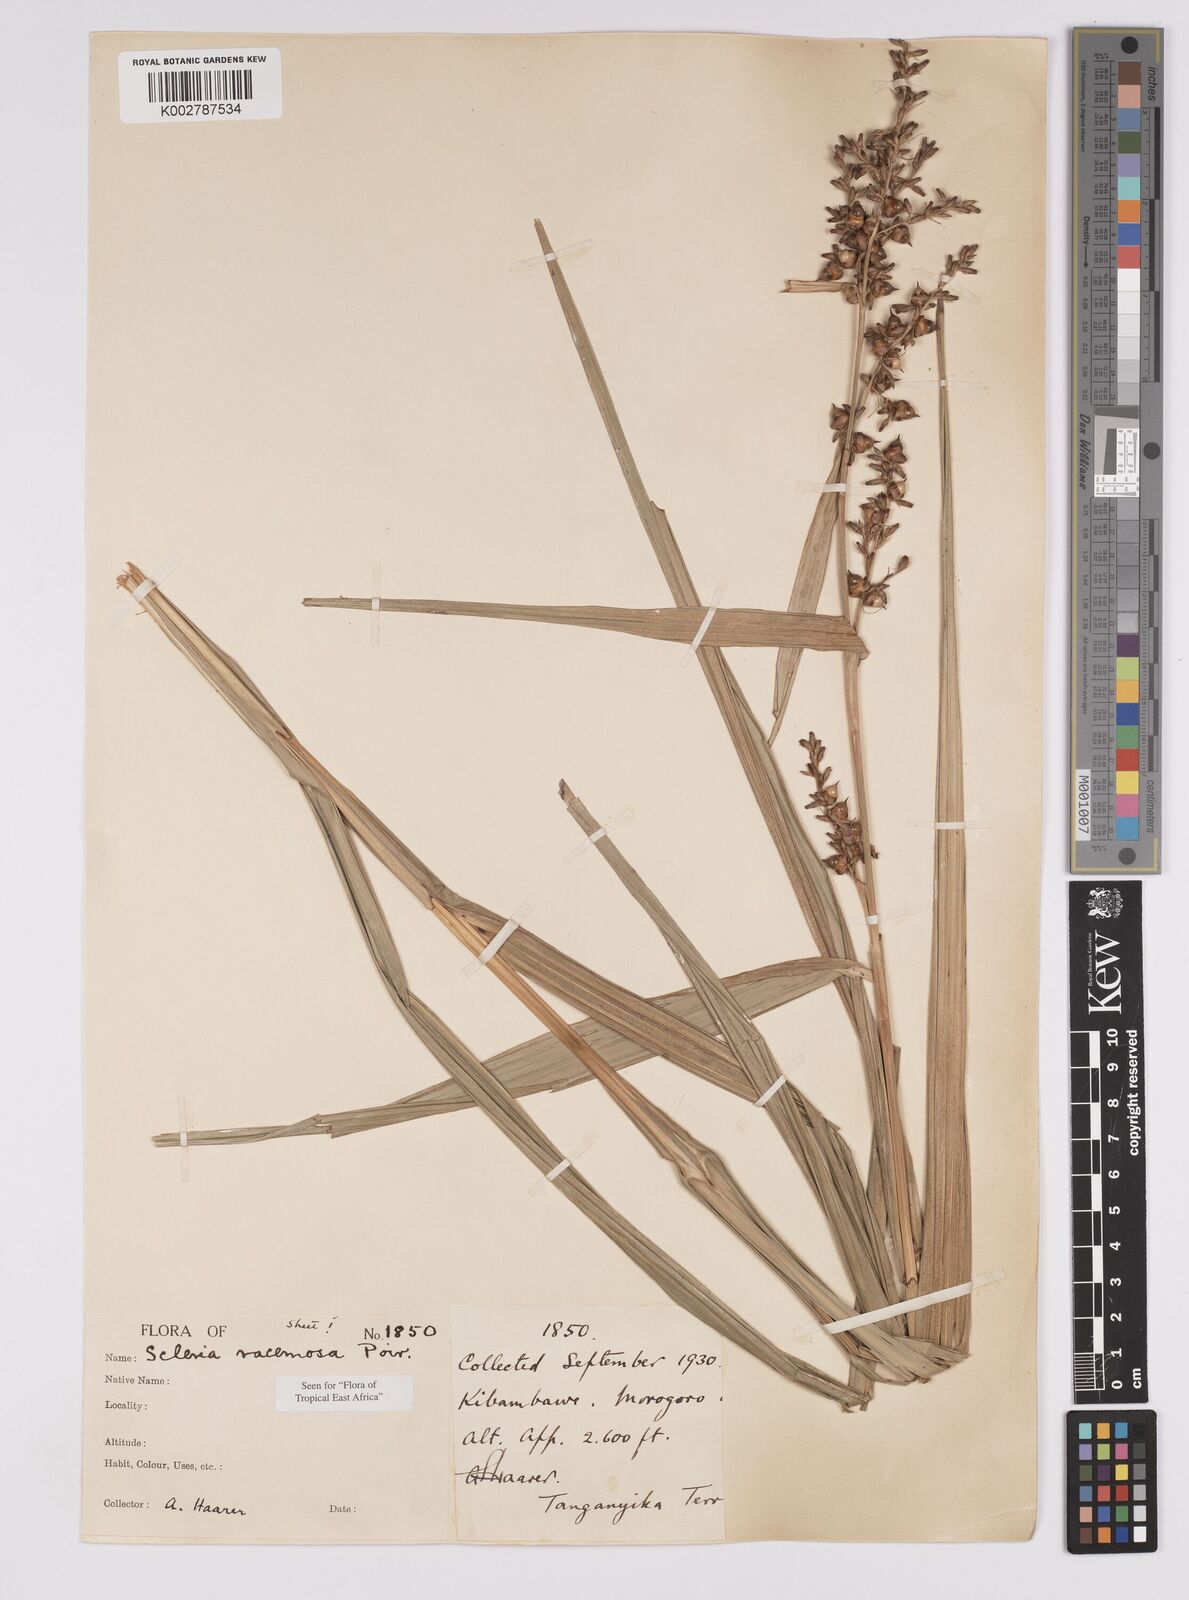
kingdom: Plantae
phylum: Tracheophyta
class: Liliopsida
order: Poales
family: Cyperaceae
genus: Scleria
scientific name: Scleria racemosa
